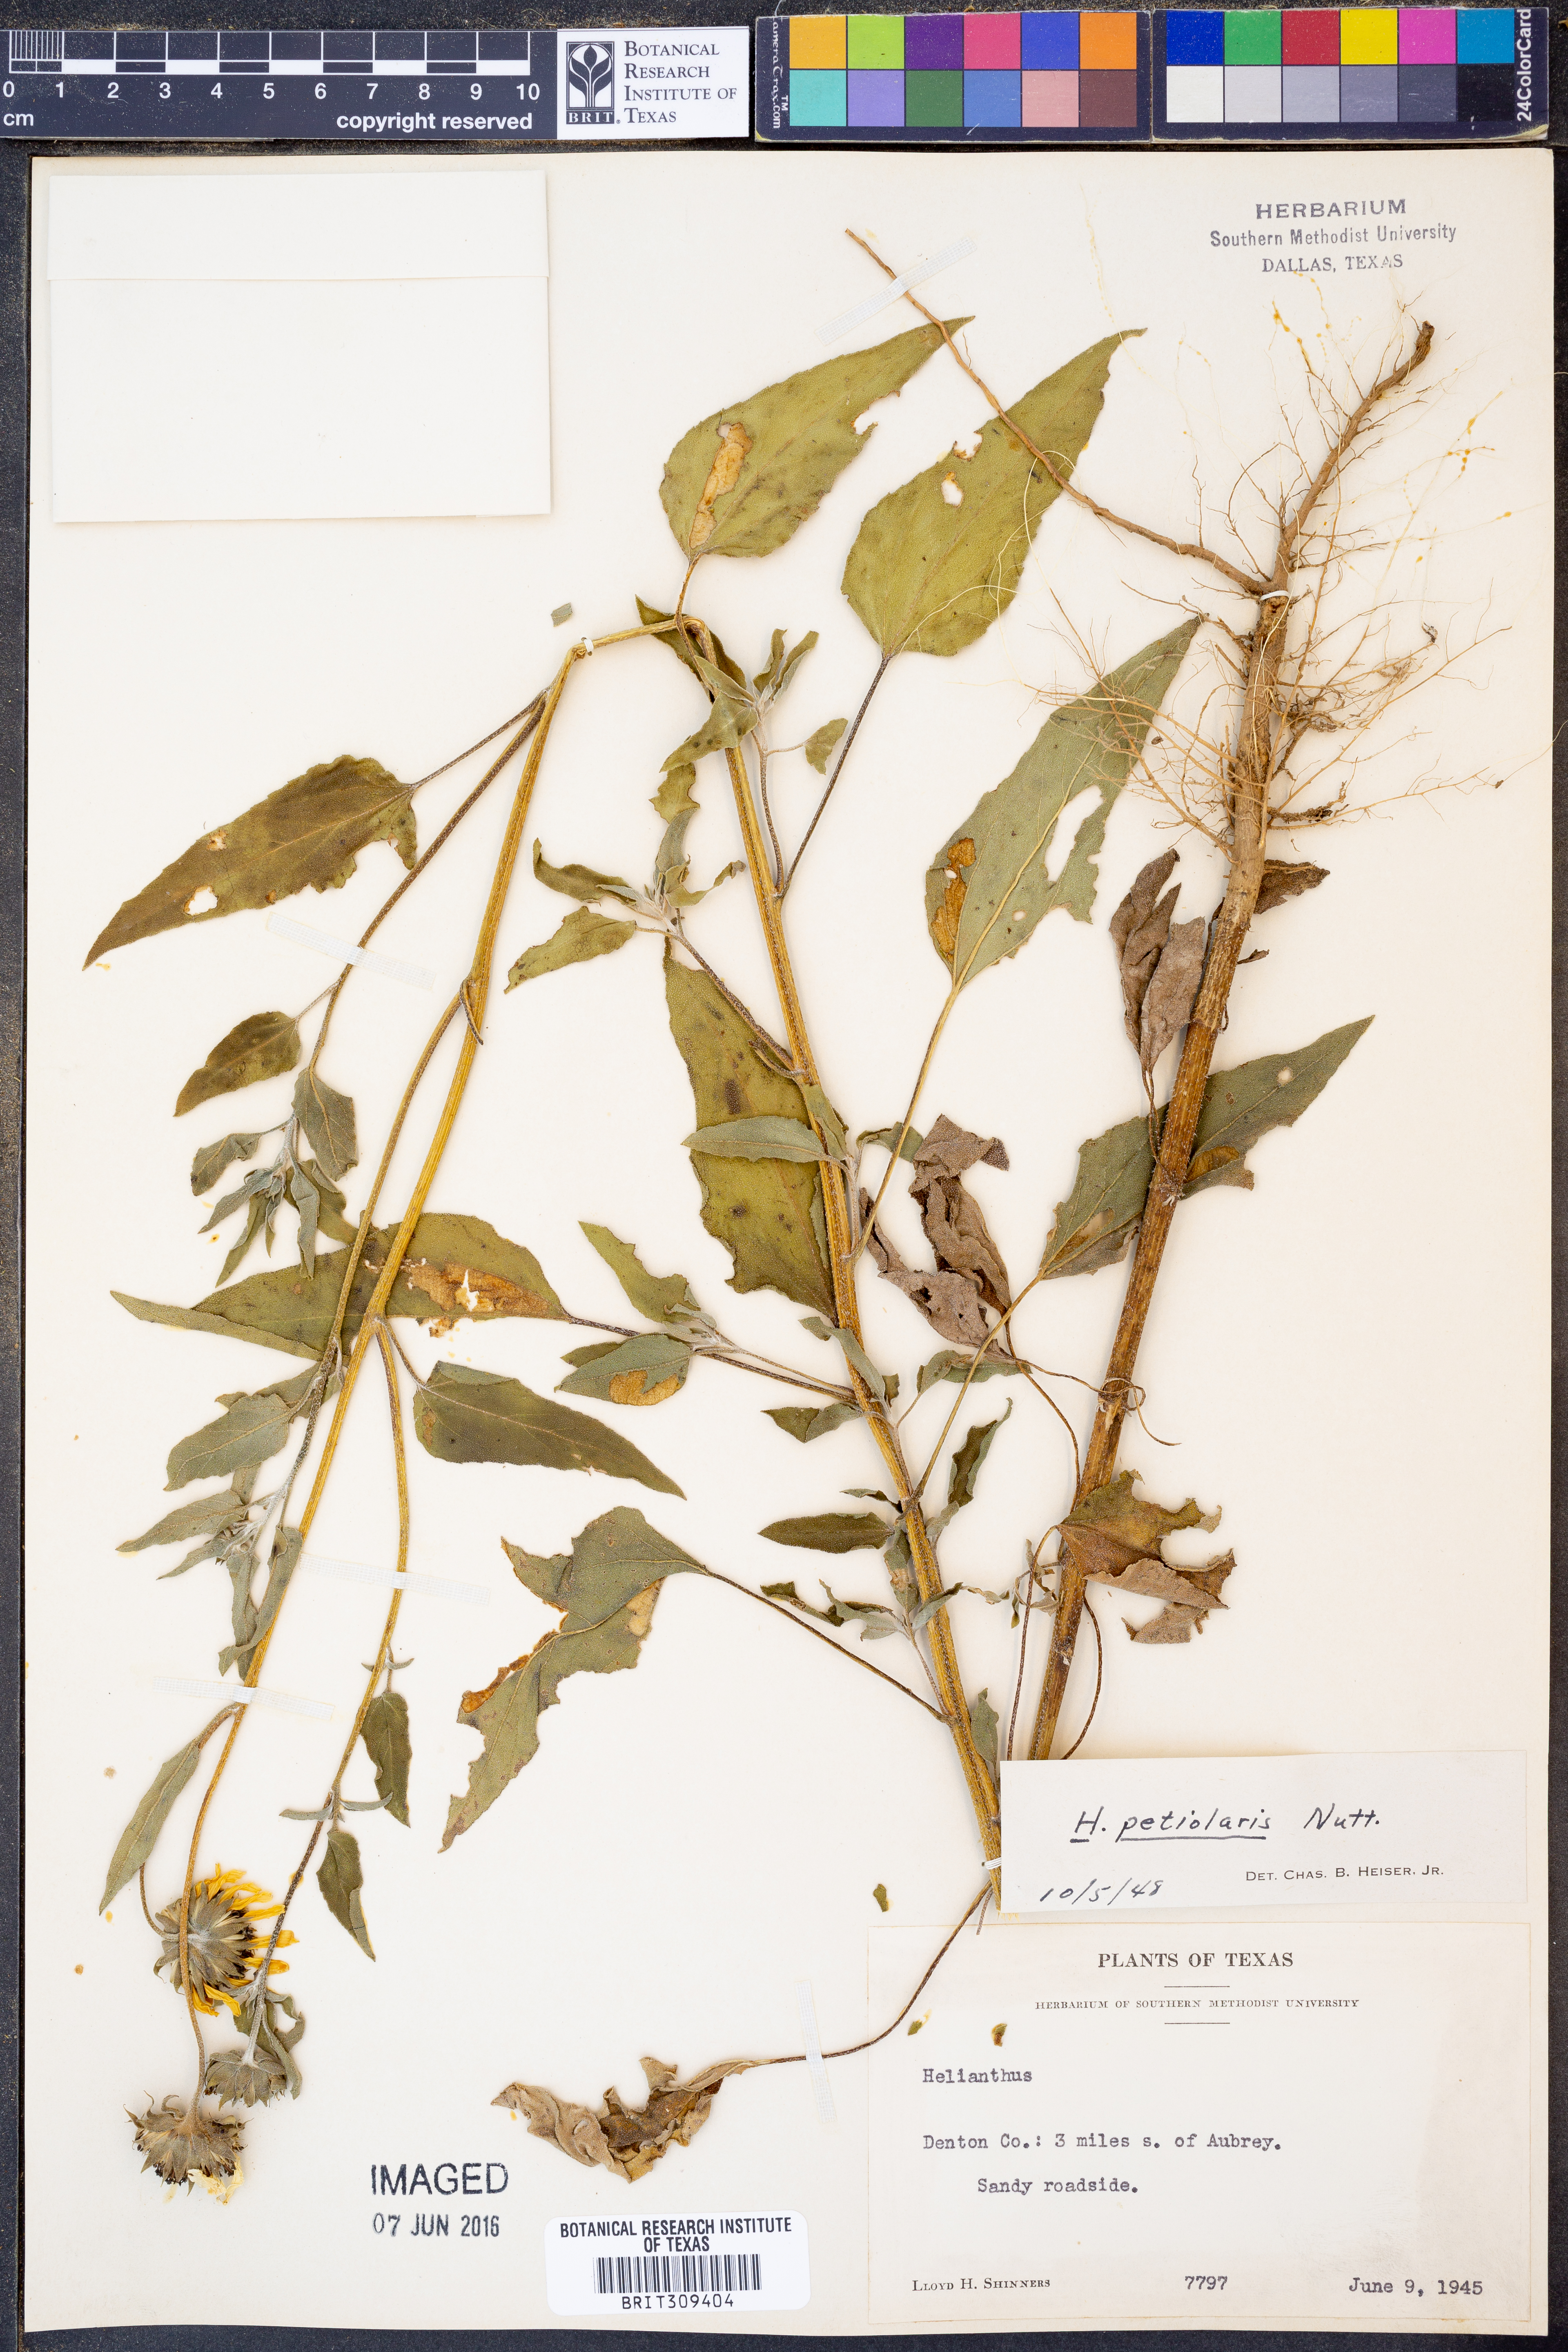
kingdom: Plantae
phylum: Tracheophyta
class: Magnoliopsida
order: Asterales
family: Asteraceae
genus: Helianthus
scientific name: Helianthus petiolaris
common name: Lesser sunflower
